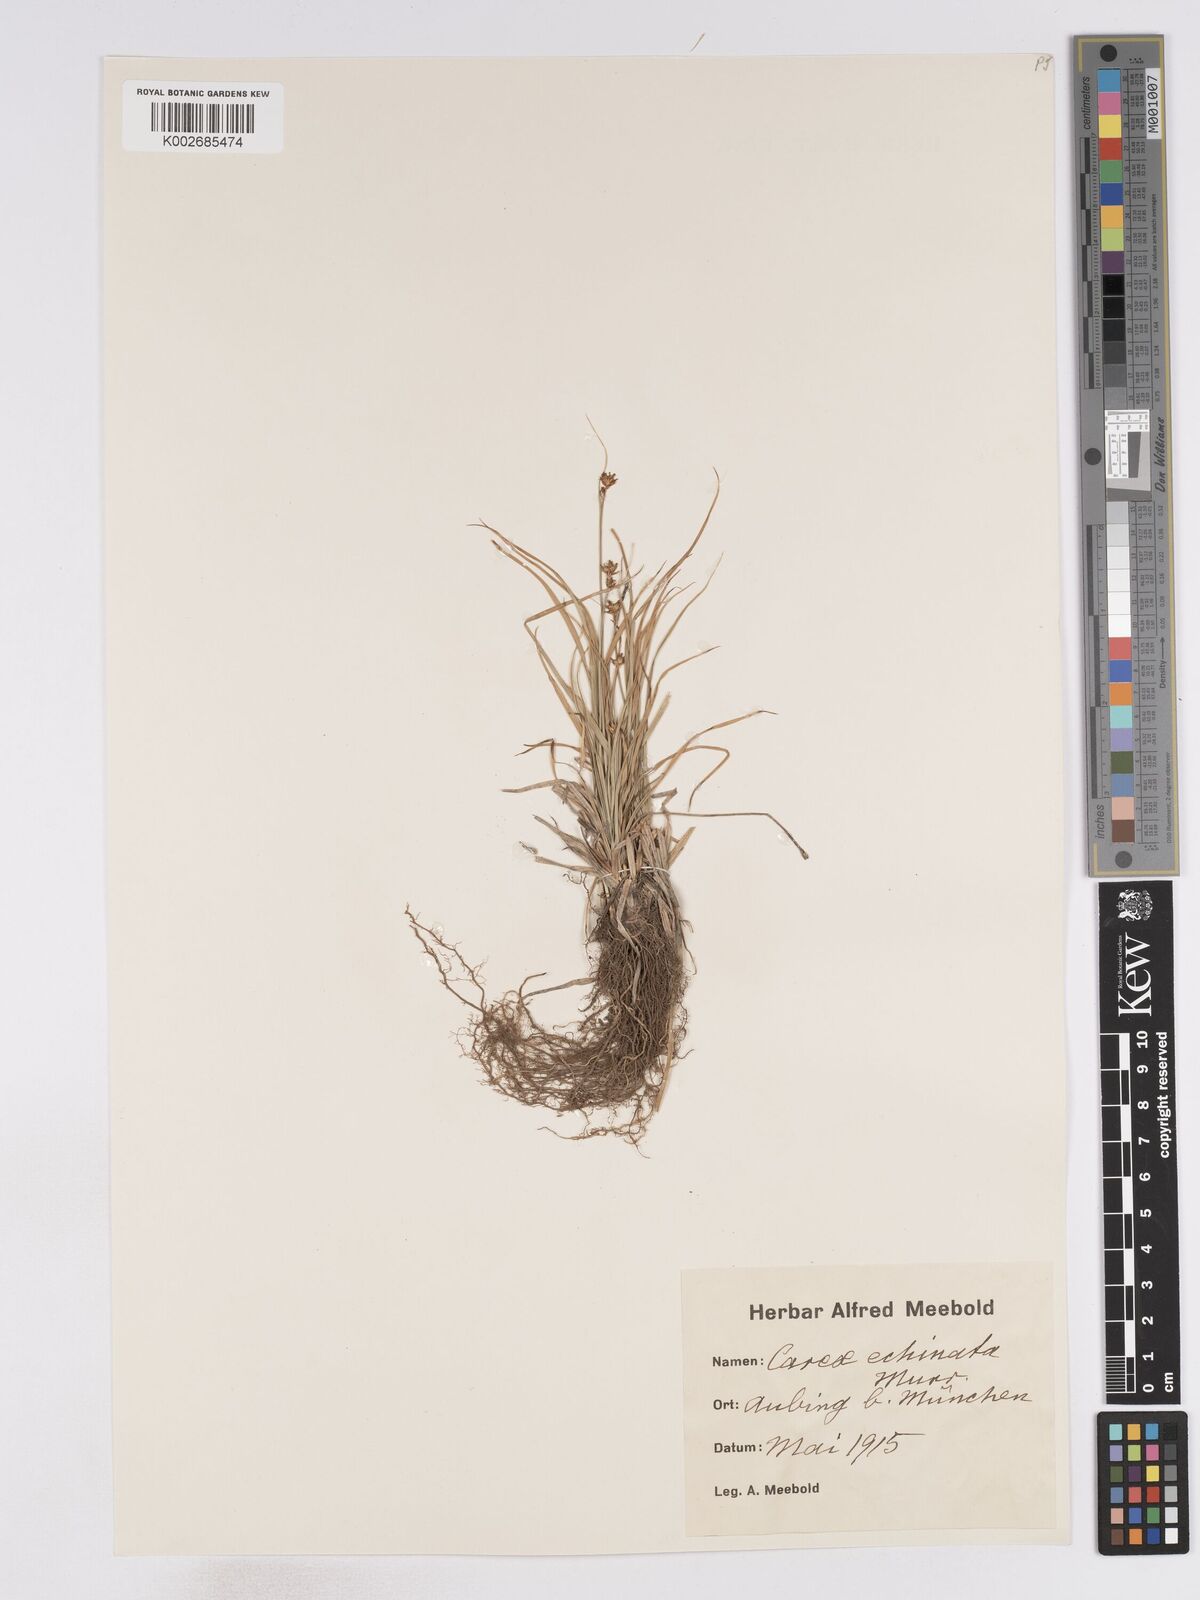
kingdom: Plantae
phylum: Tracheophyta
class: Liliopsida
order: Poales
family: Cyperaceae
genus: Carex
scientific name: Carex echinata
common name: Star sedge
